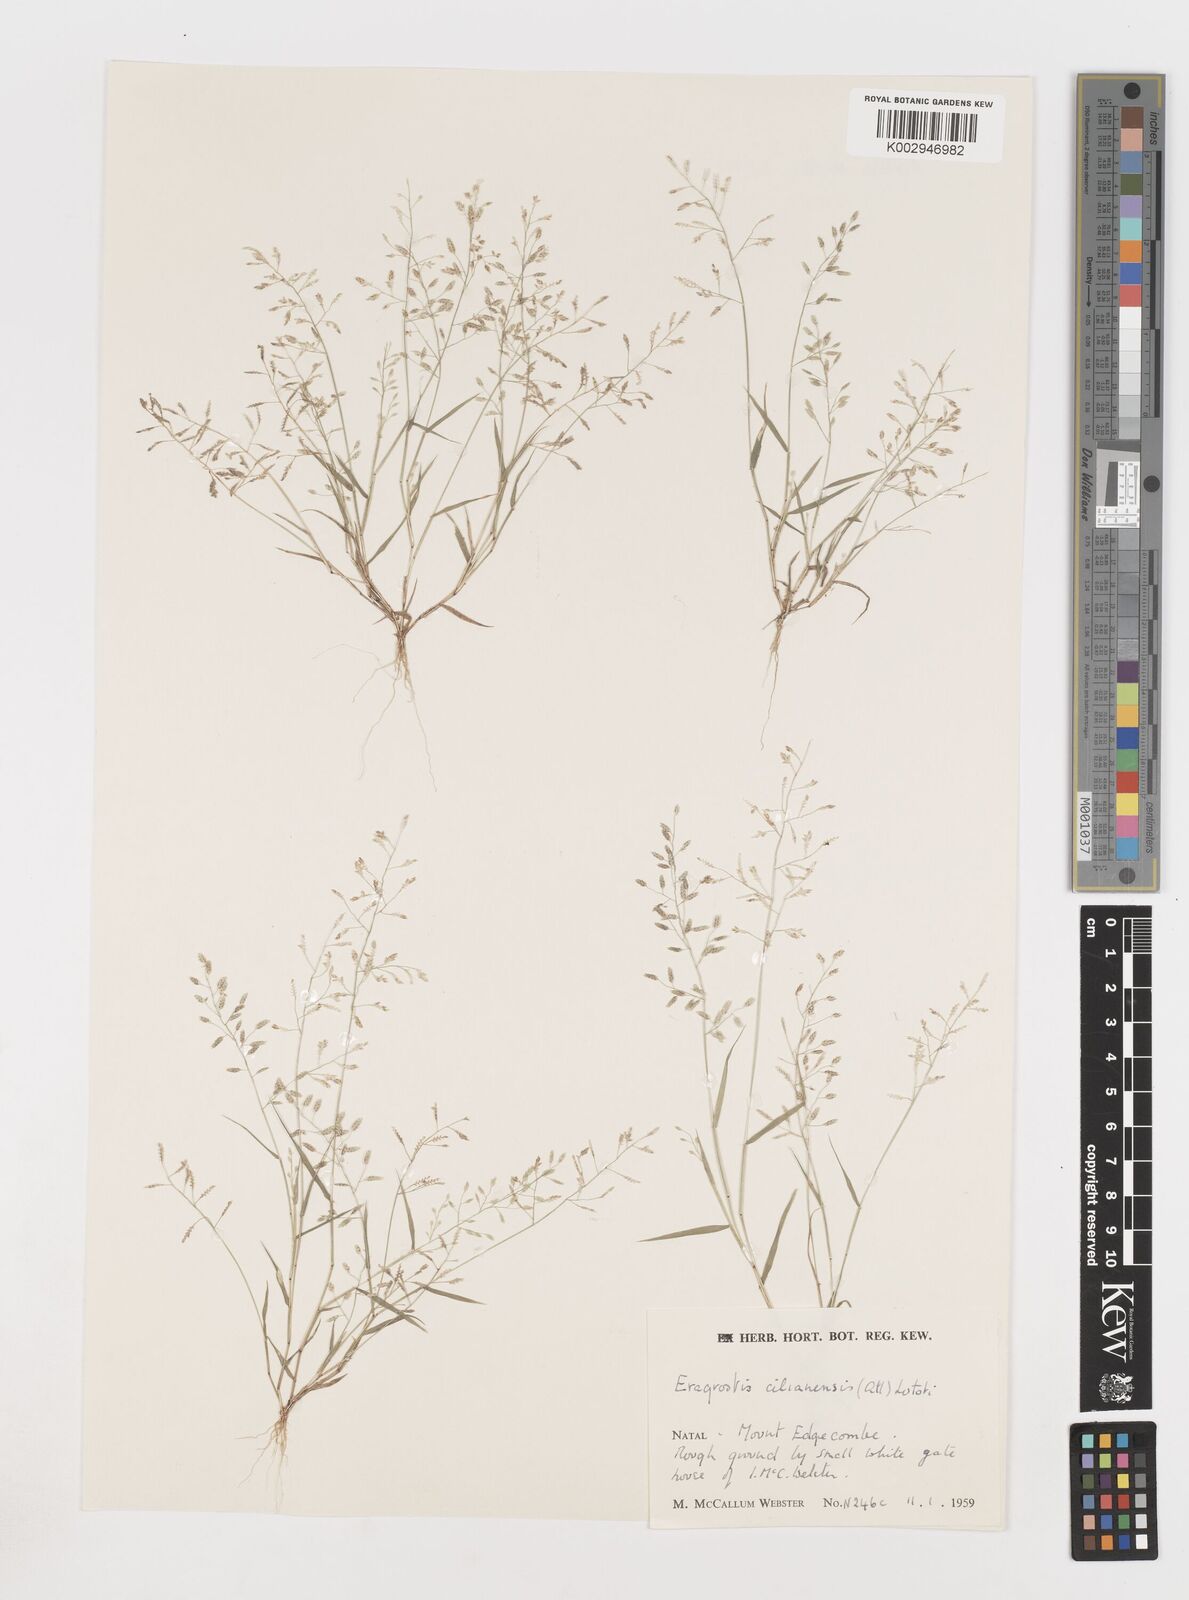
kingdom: Plantae
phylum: Tracheophyta
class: Liliopsida
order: Poales
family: Poaceae
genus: Eragrostis
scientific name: Eragrostis minor
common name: Small love-grass
